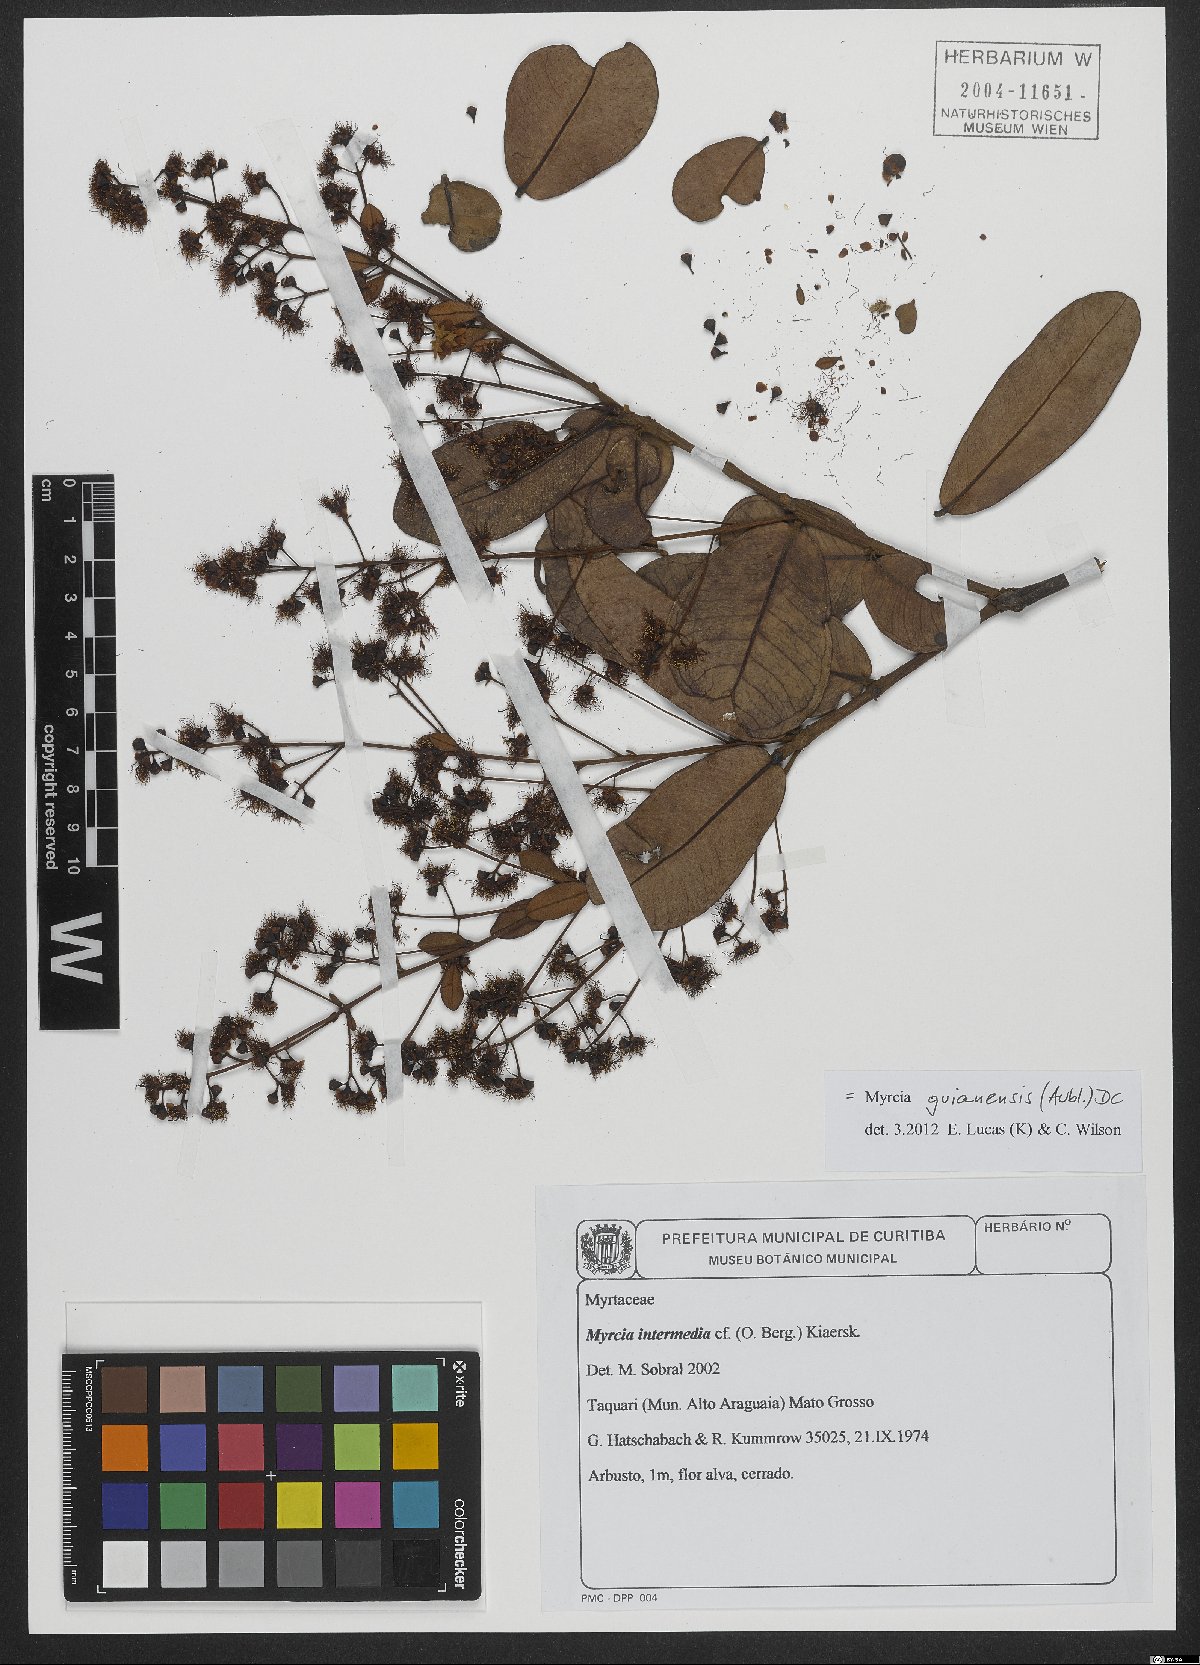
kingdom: Plantae
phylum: Tracheophyta
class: Magnoliopsida
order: Myrtales
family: Myrtaceae
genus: Myrcia
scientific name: Myrcia guianensis
